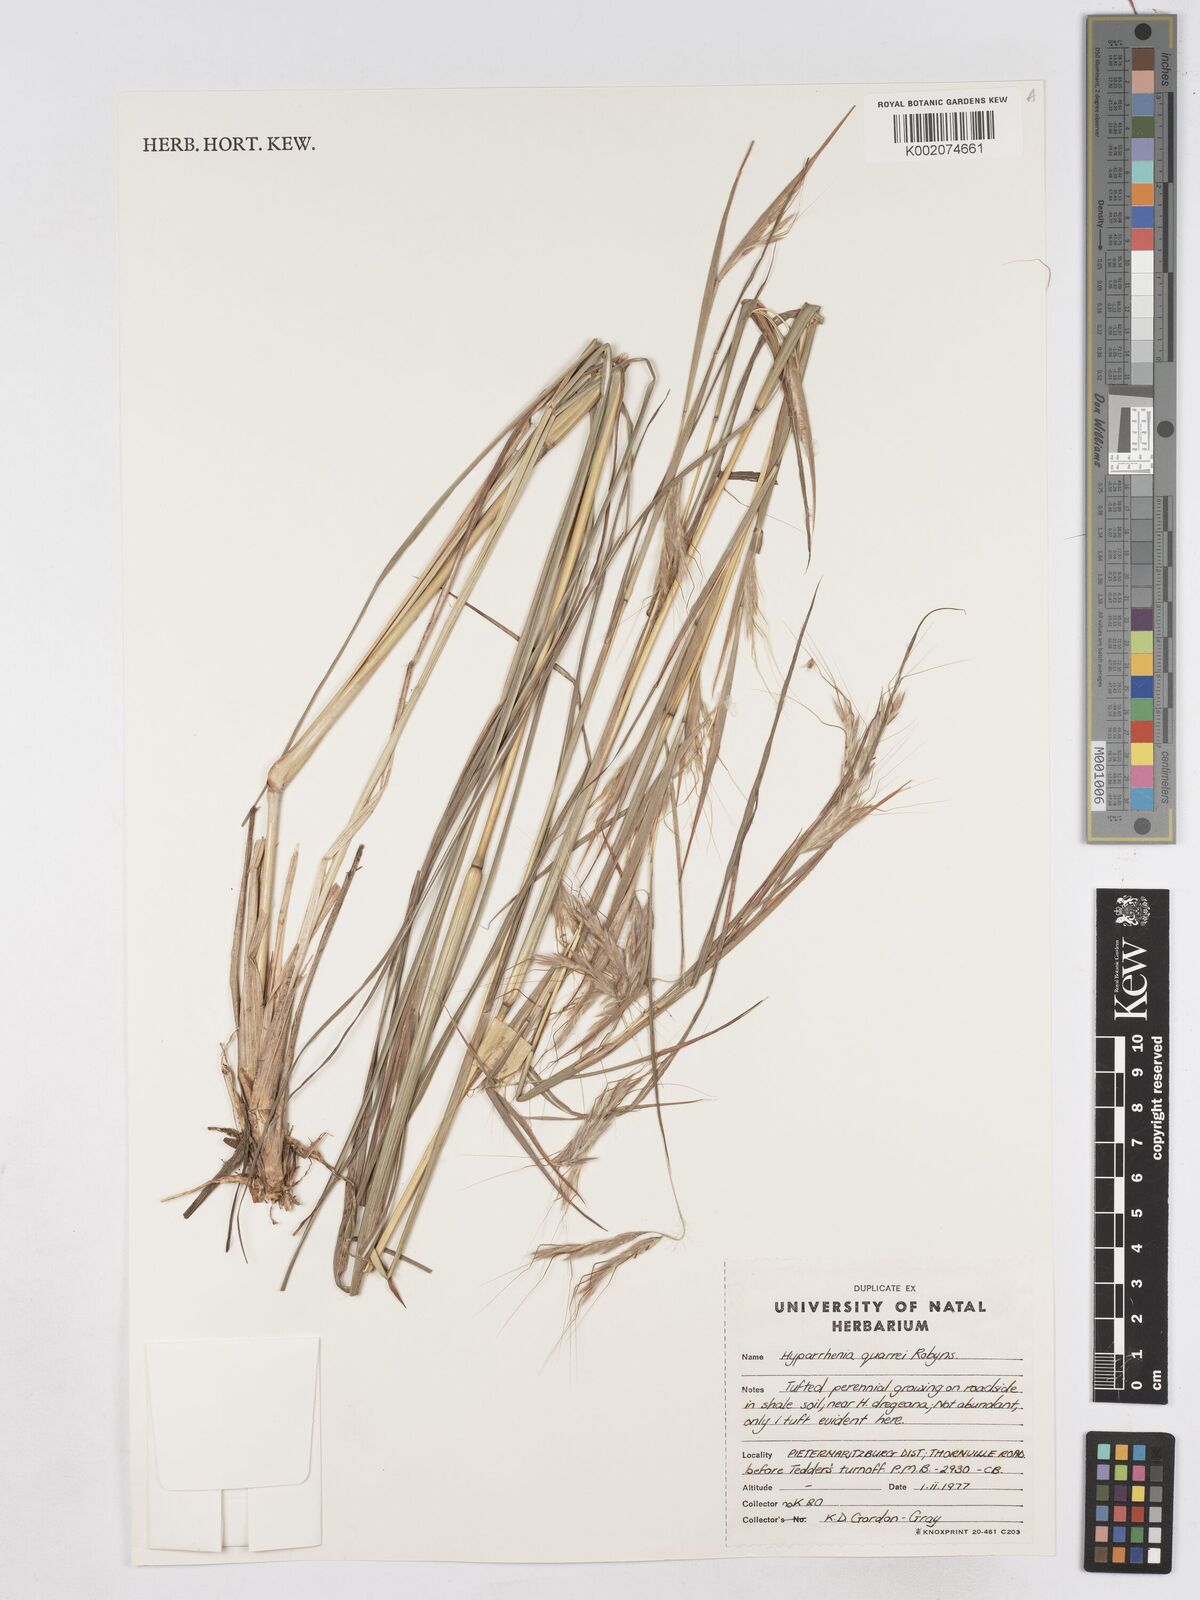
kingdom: Plantae
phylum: Tracheophyta
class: Liliopsida
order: Poales
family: Poaceae
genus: Hyparrhenia
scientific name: Hyparrhenia quarrei
